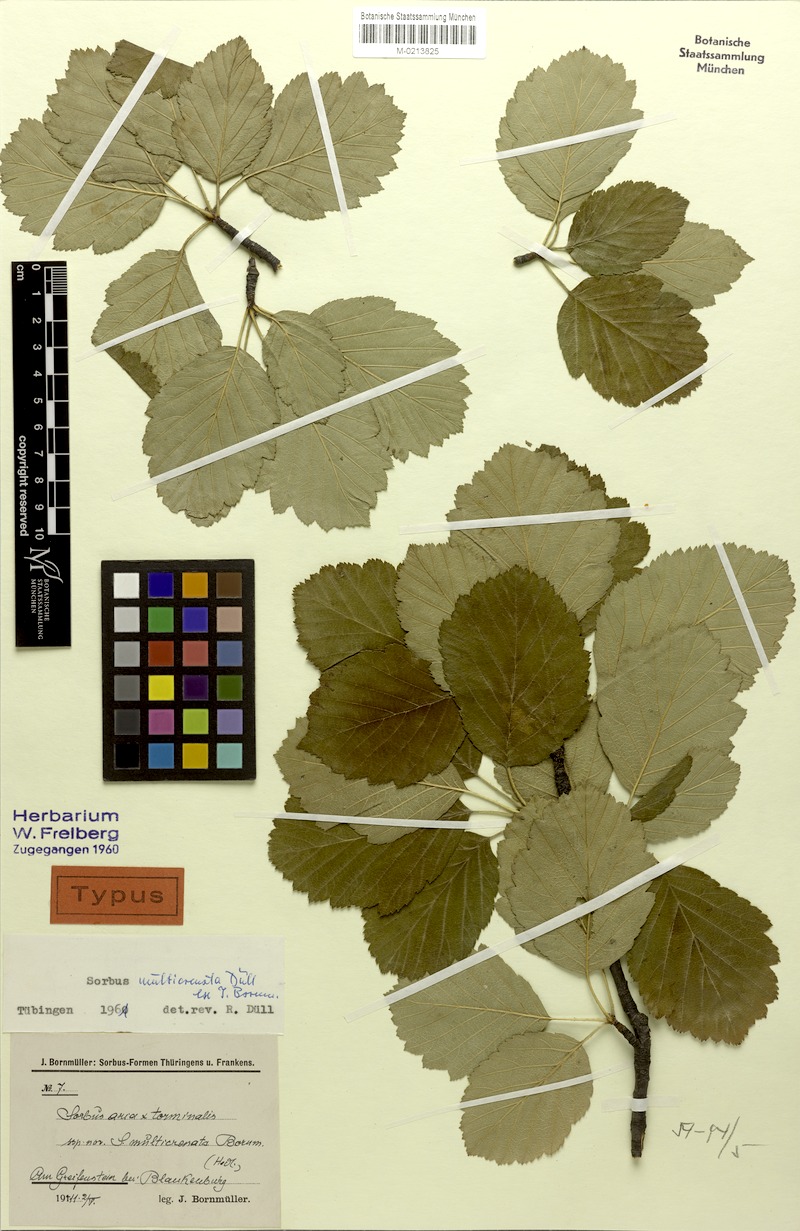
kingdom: Plantae
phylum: Tracheophyta
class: Magnoliopsida
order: Rosales
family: Rosaceae
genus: Karpatiosorbus
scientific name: Karpatiosorbus hybrida
